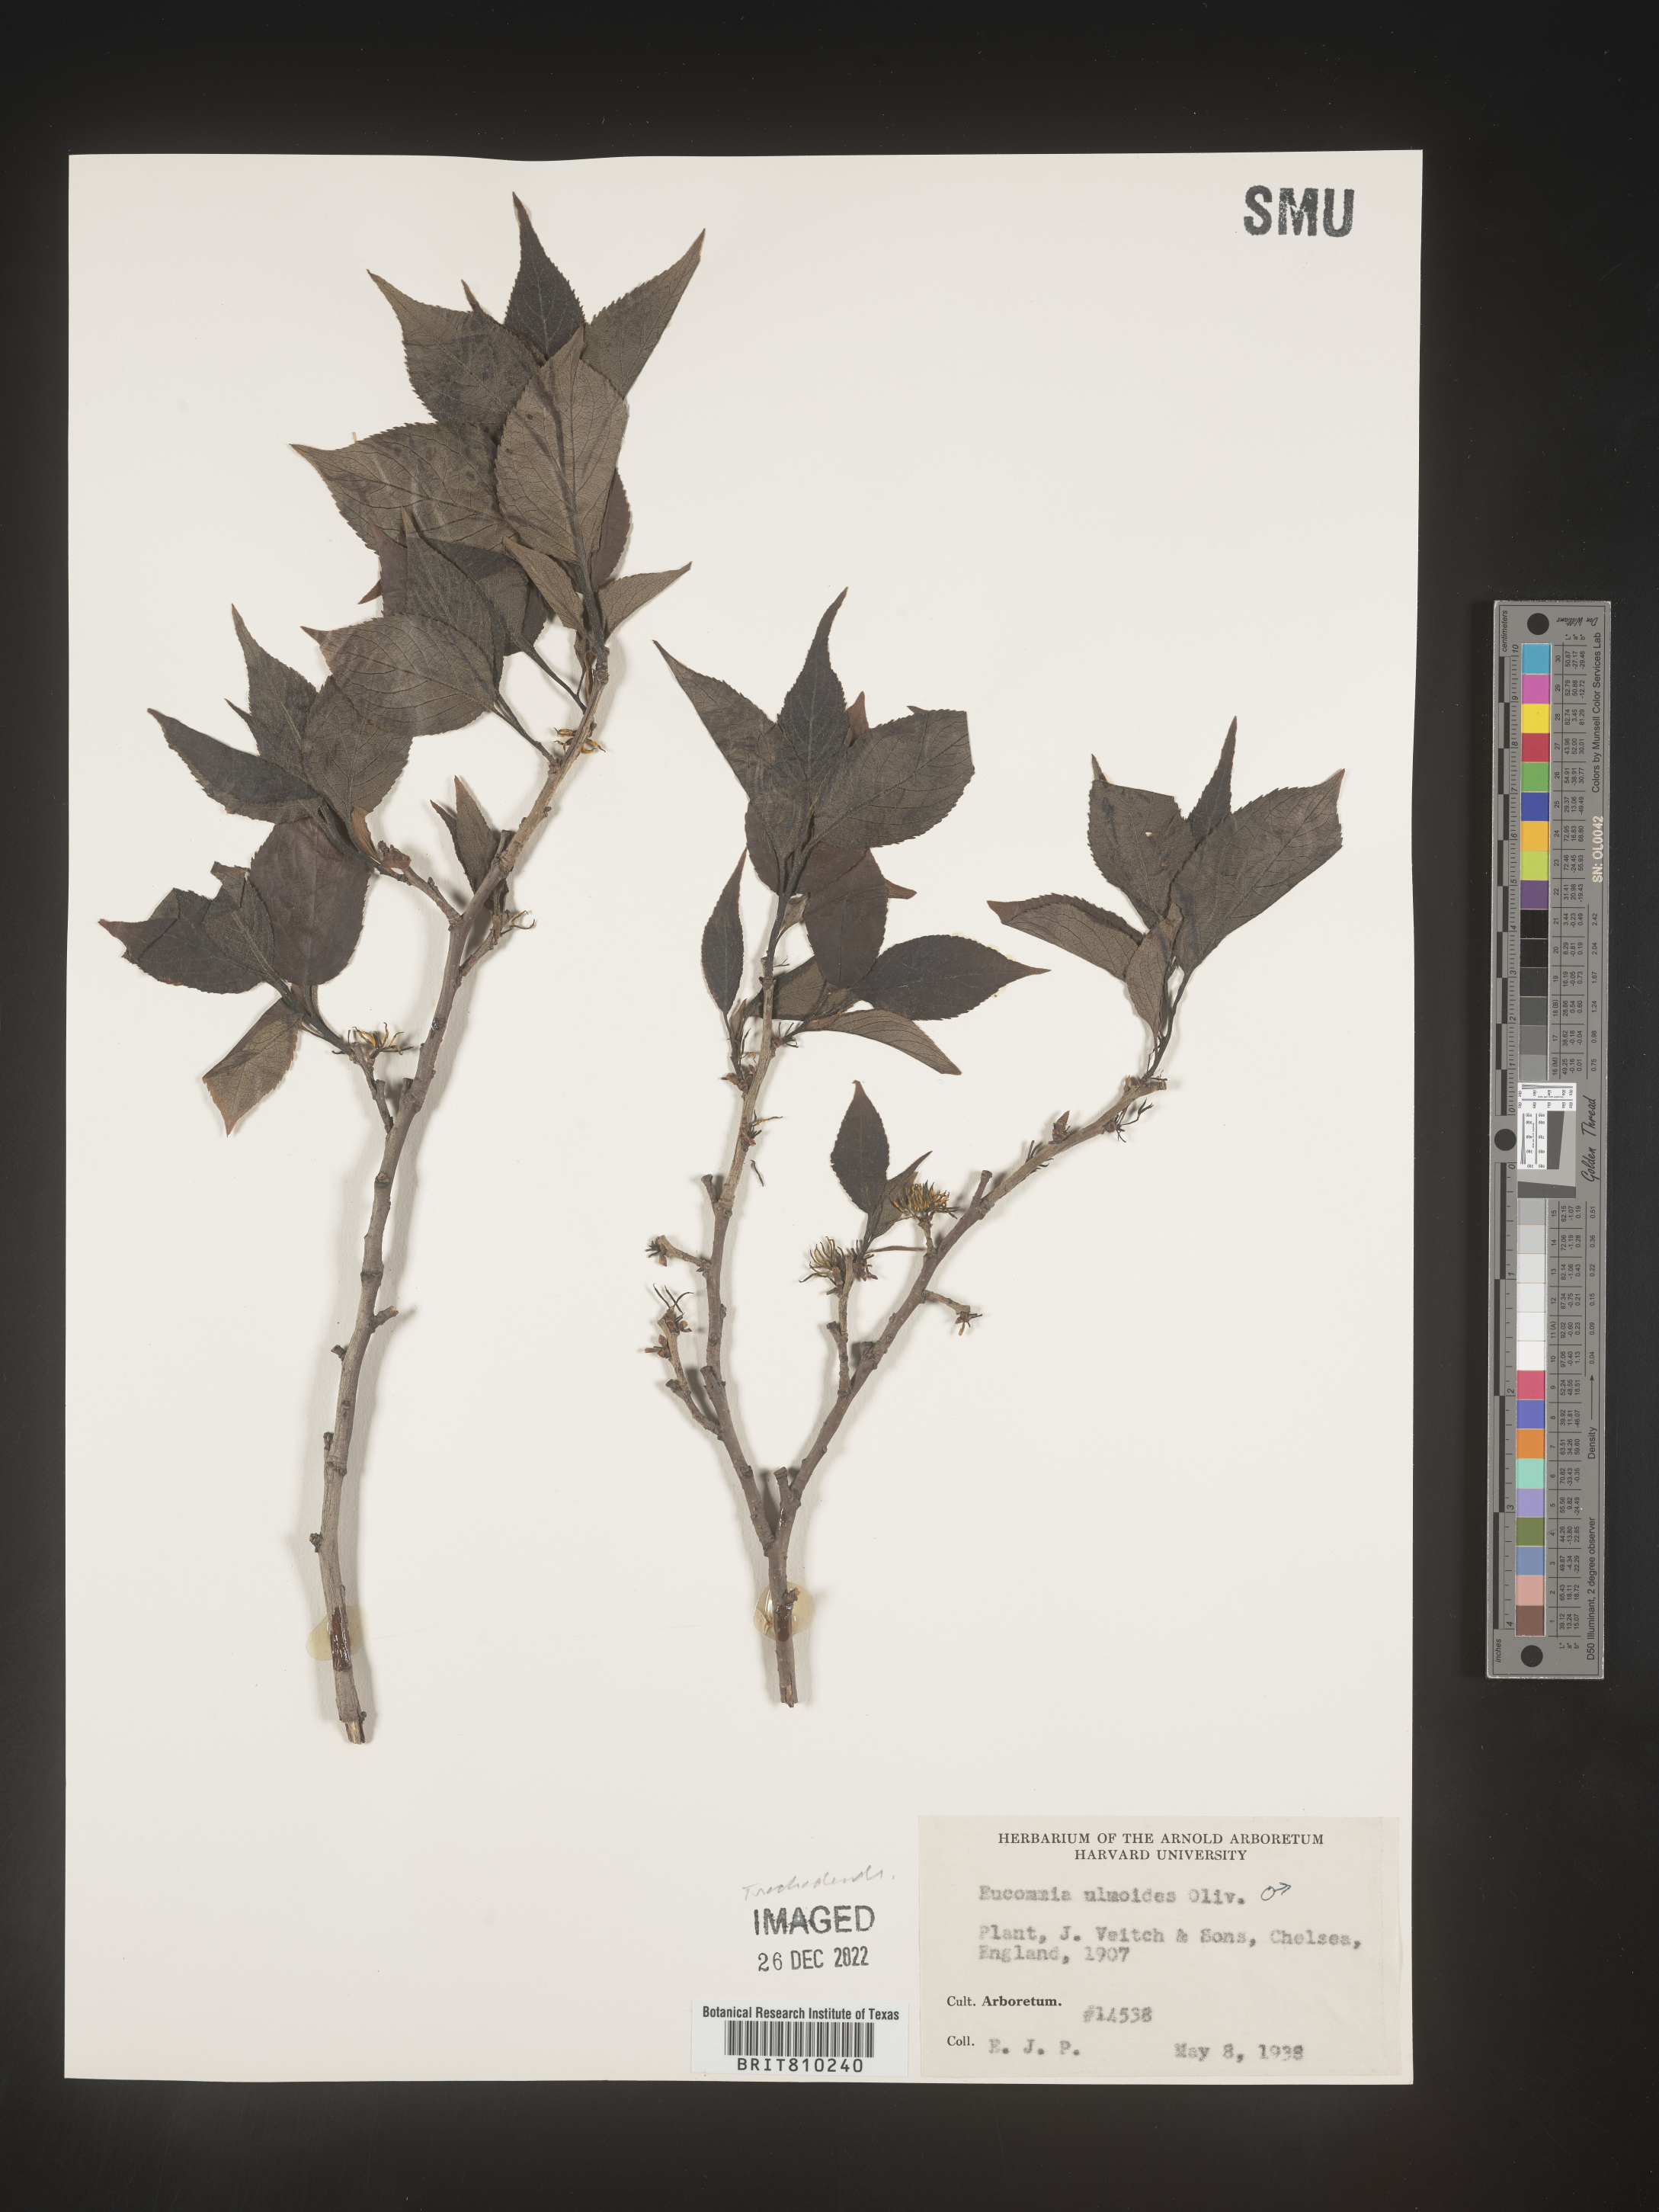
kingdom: Plantae
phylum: Tracheophyta
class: Magnoliopsida
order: Garryales
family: Eucommiaceae
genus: Eucommia
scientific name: Eucommia
